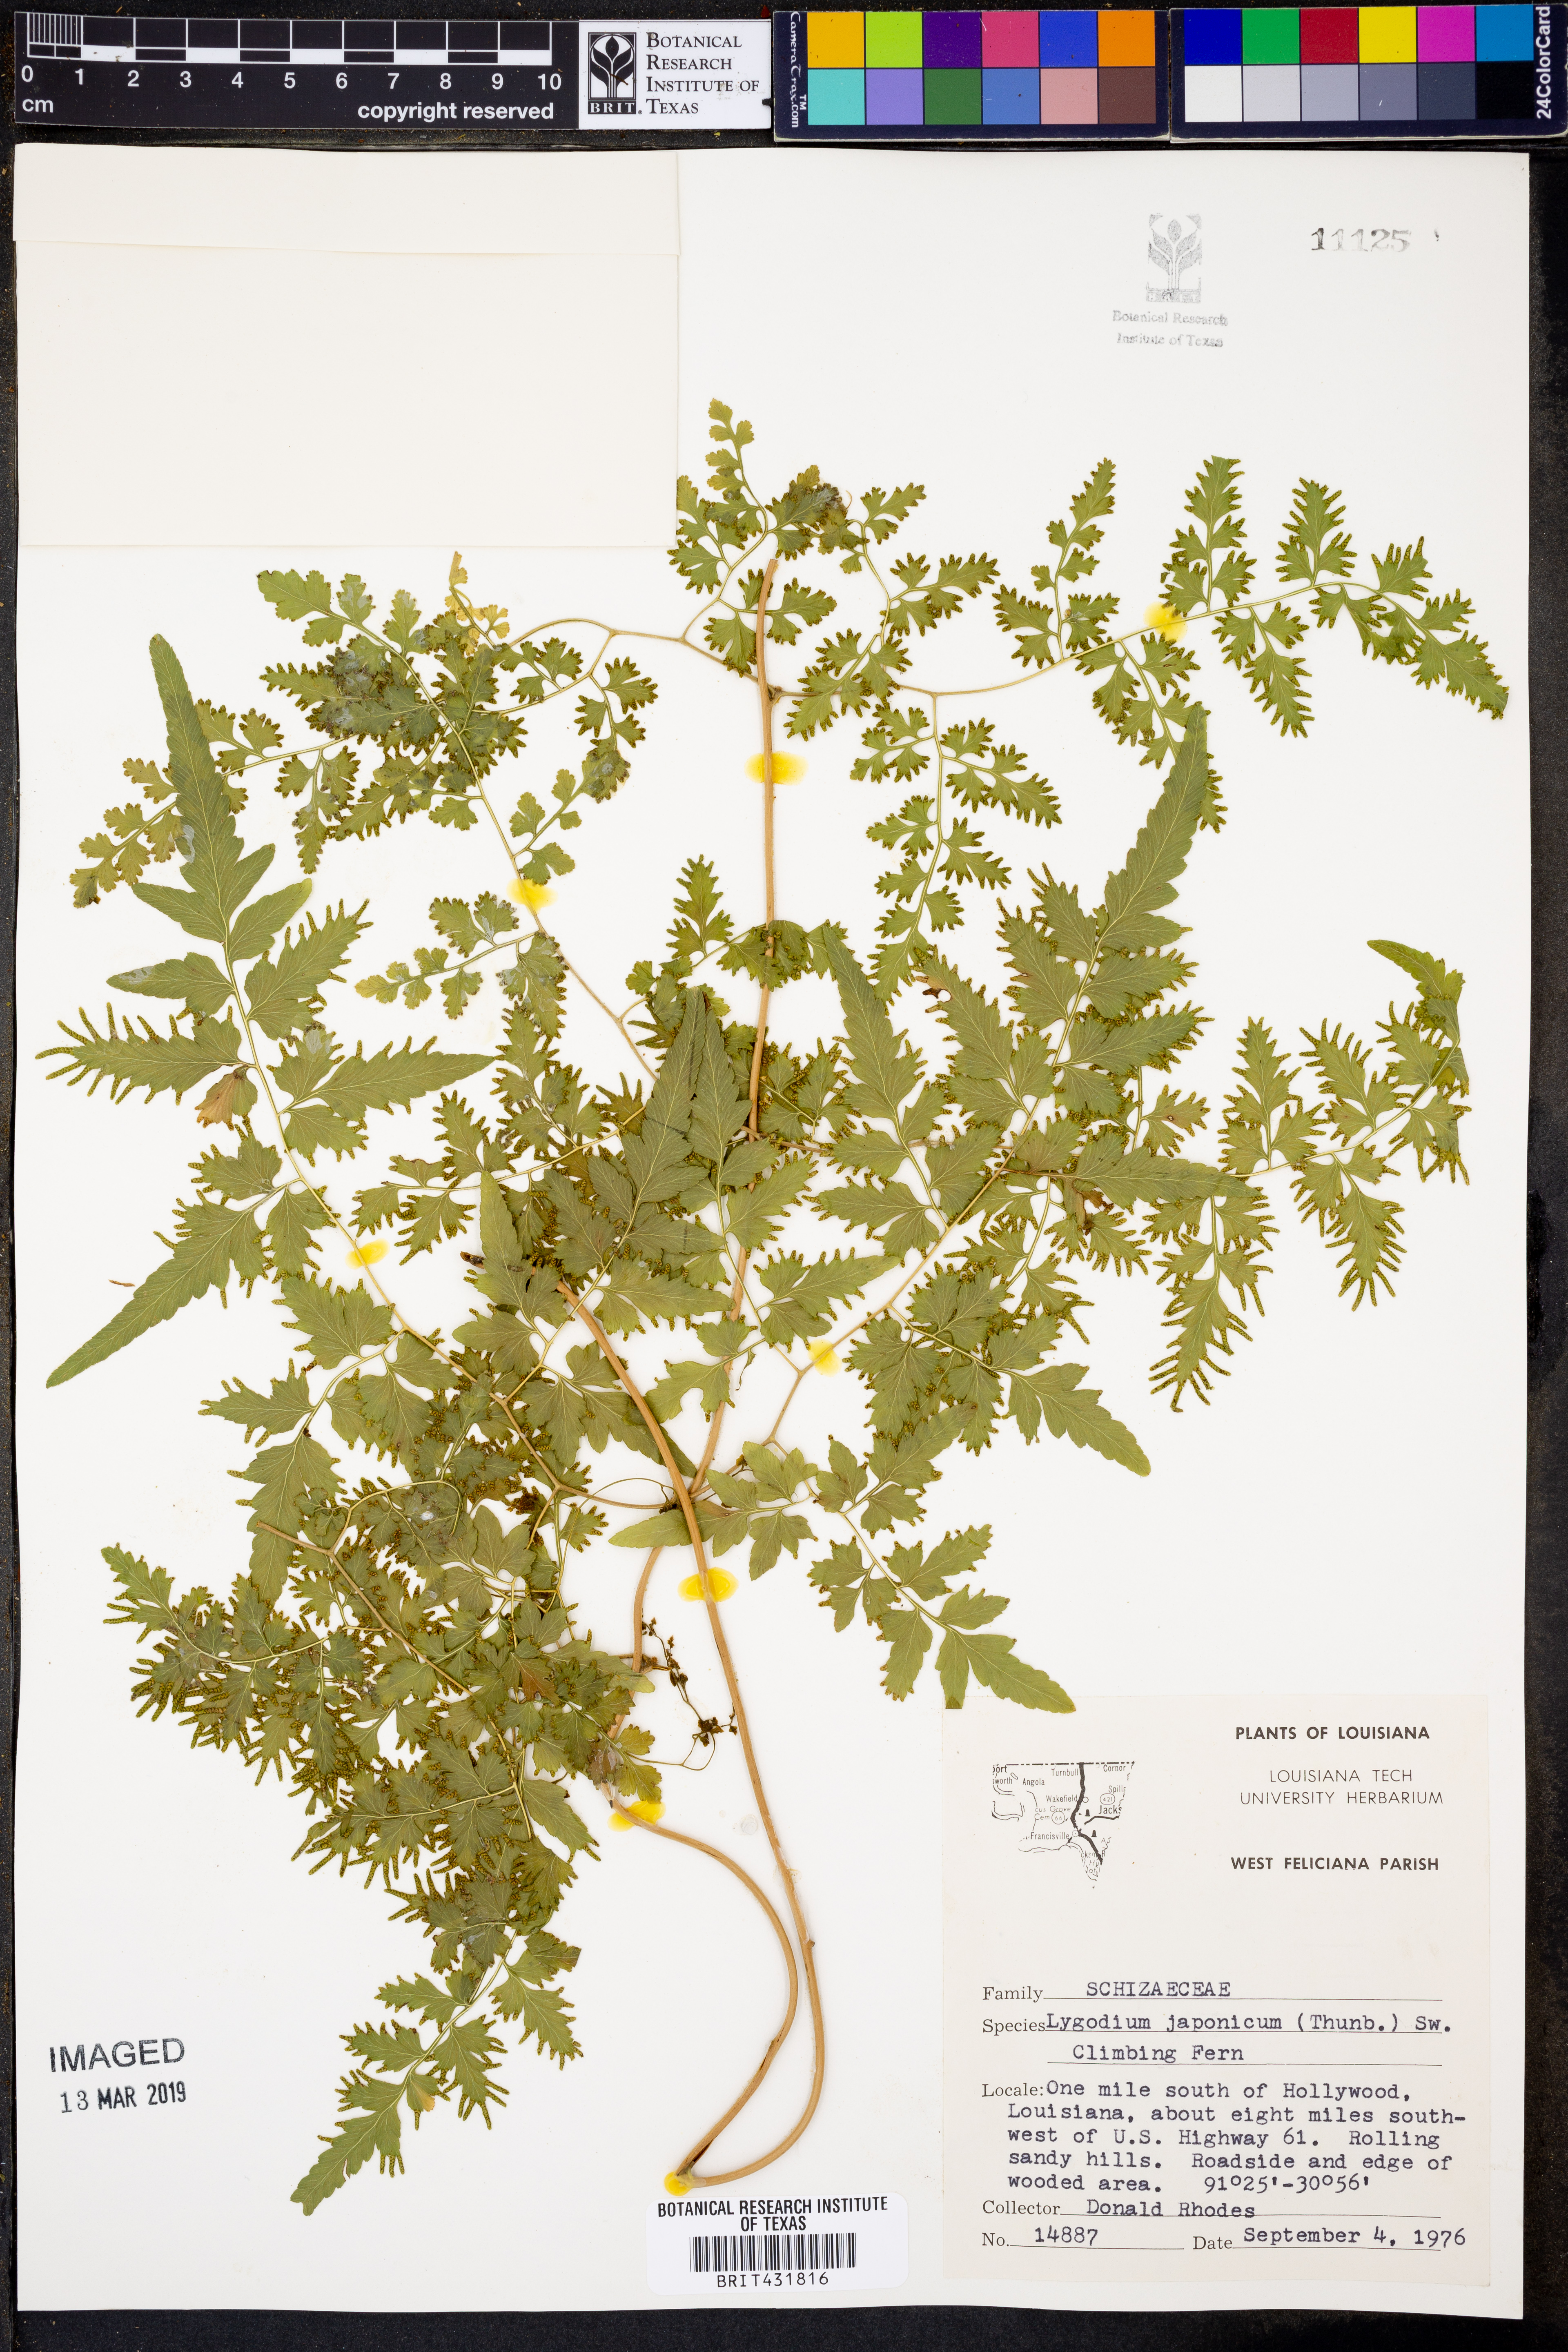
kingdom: Plantae
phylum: Tracheophyta
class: Polypodiopsida
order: Schizaeales
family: Lygodiaceae
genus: Lygodium
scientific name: Lygodium japonicum
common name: Japanese climbing fern
